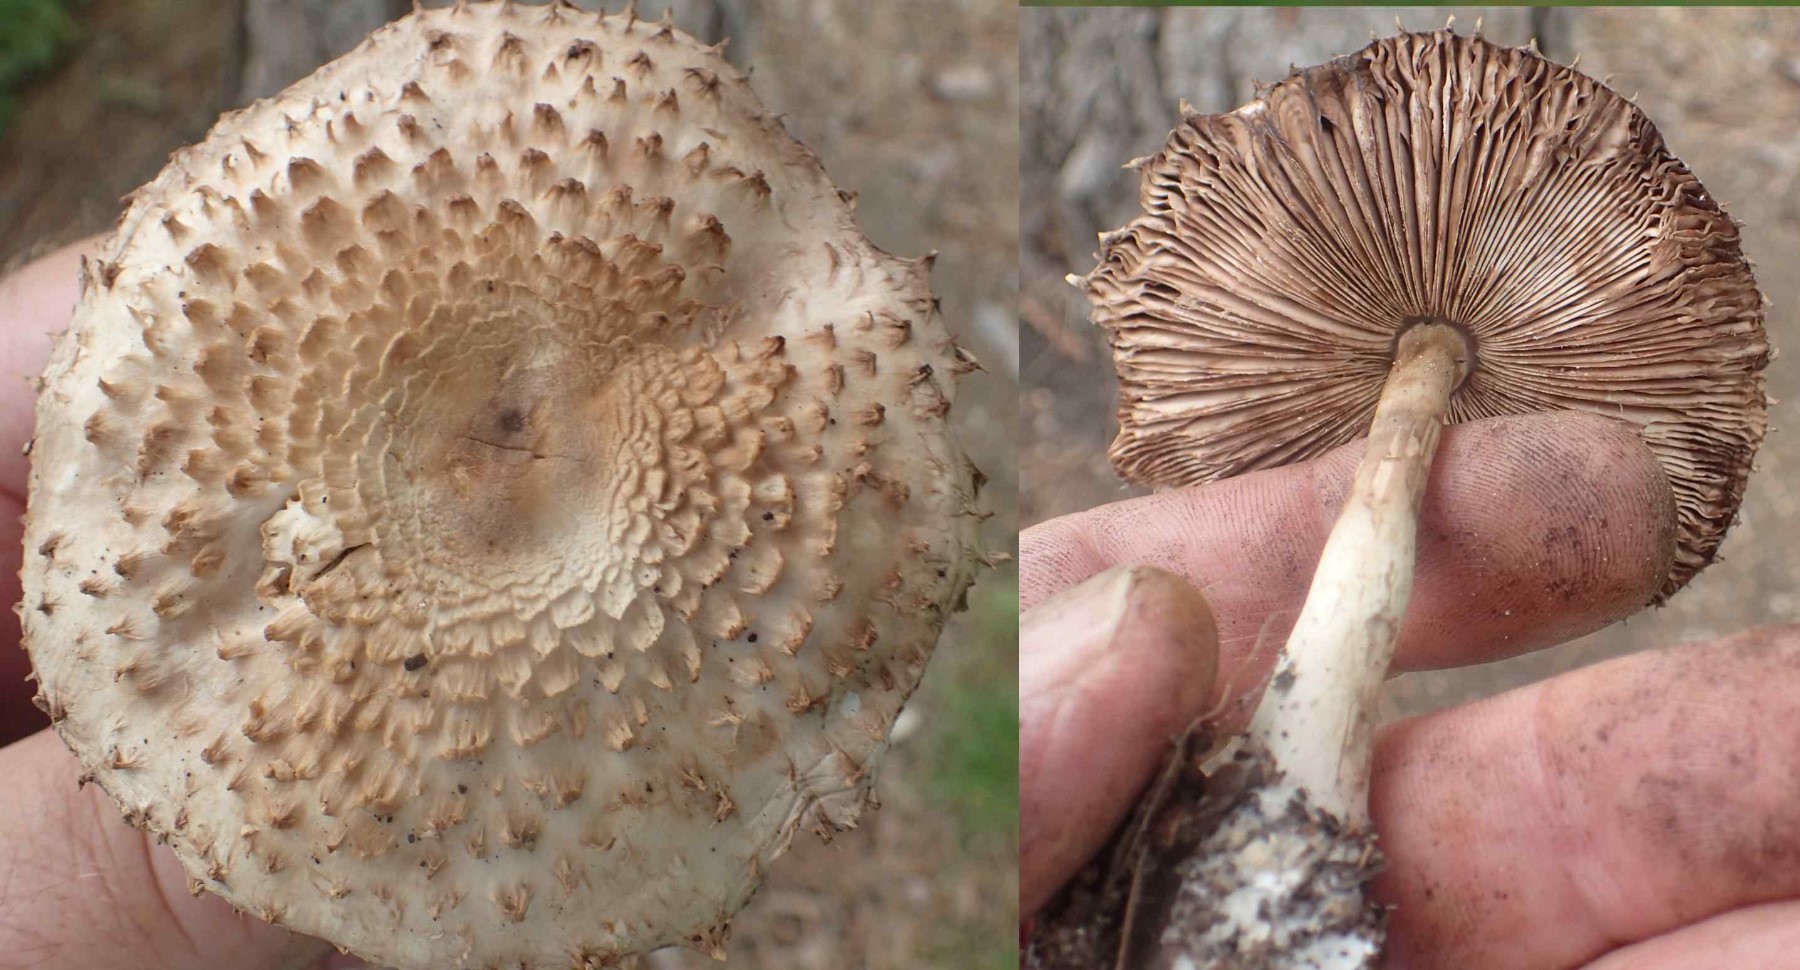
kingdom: Fungi
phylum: Basidiomycota
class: Agaricomycetes
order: Agaricales
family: Agaricaceae
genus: Leucoagaricus
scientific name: Leucoagaricus nympharum
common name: gran-silkehat
